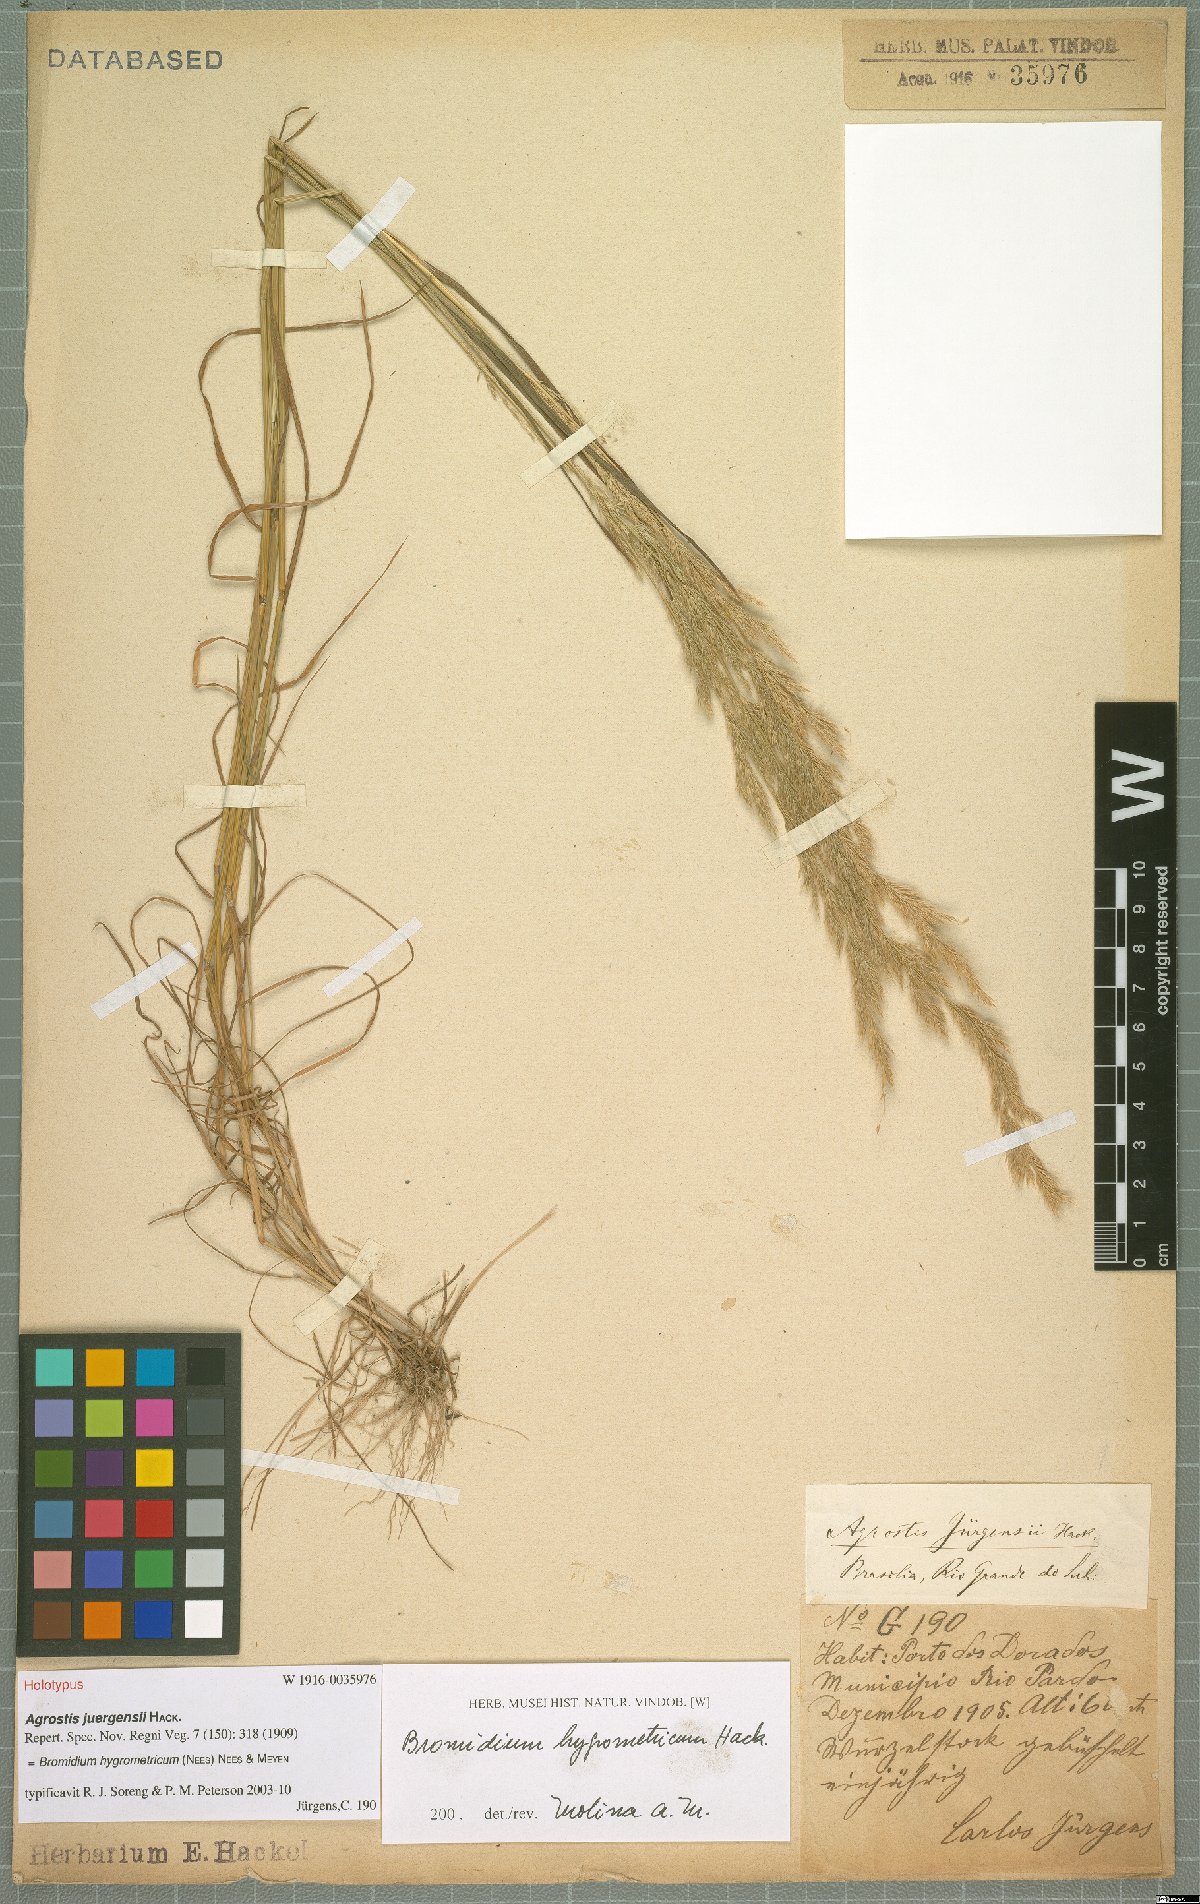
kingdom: Plantae
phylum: Tracheophyta
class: Liliopsida
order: Poales
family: Poaceae
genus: Agrostis
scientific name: Agrostis hygrometrica
